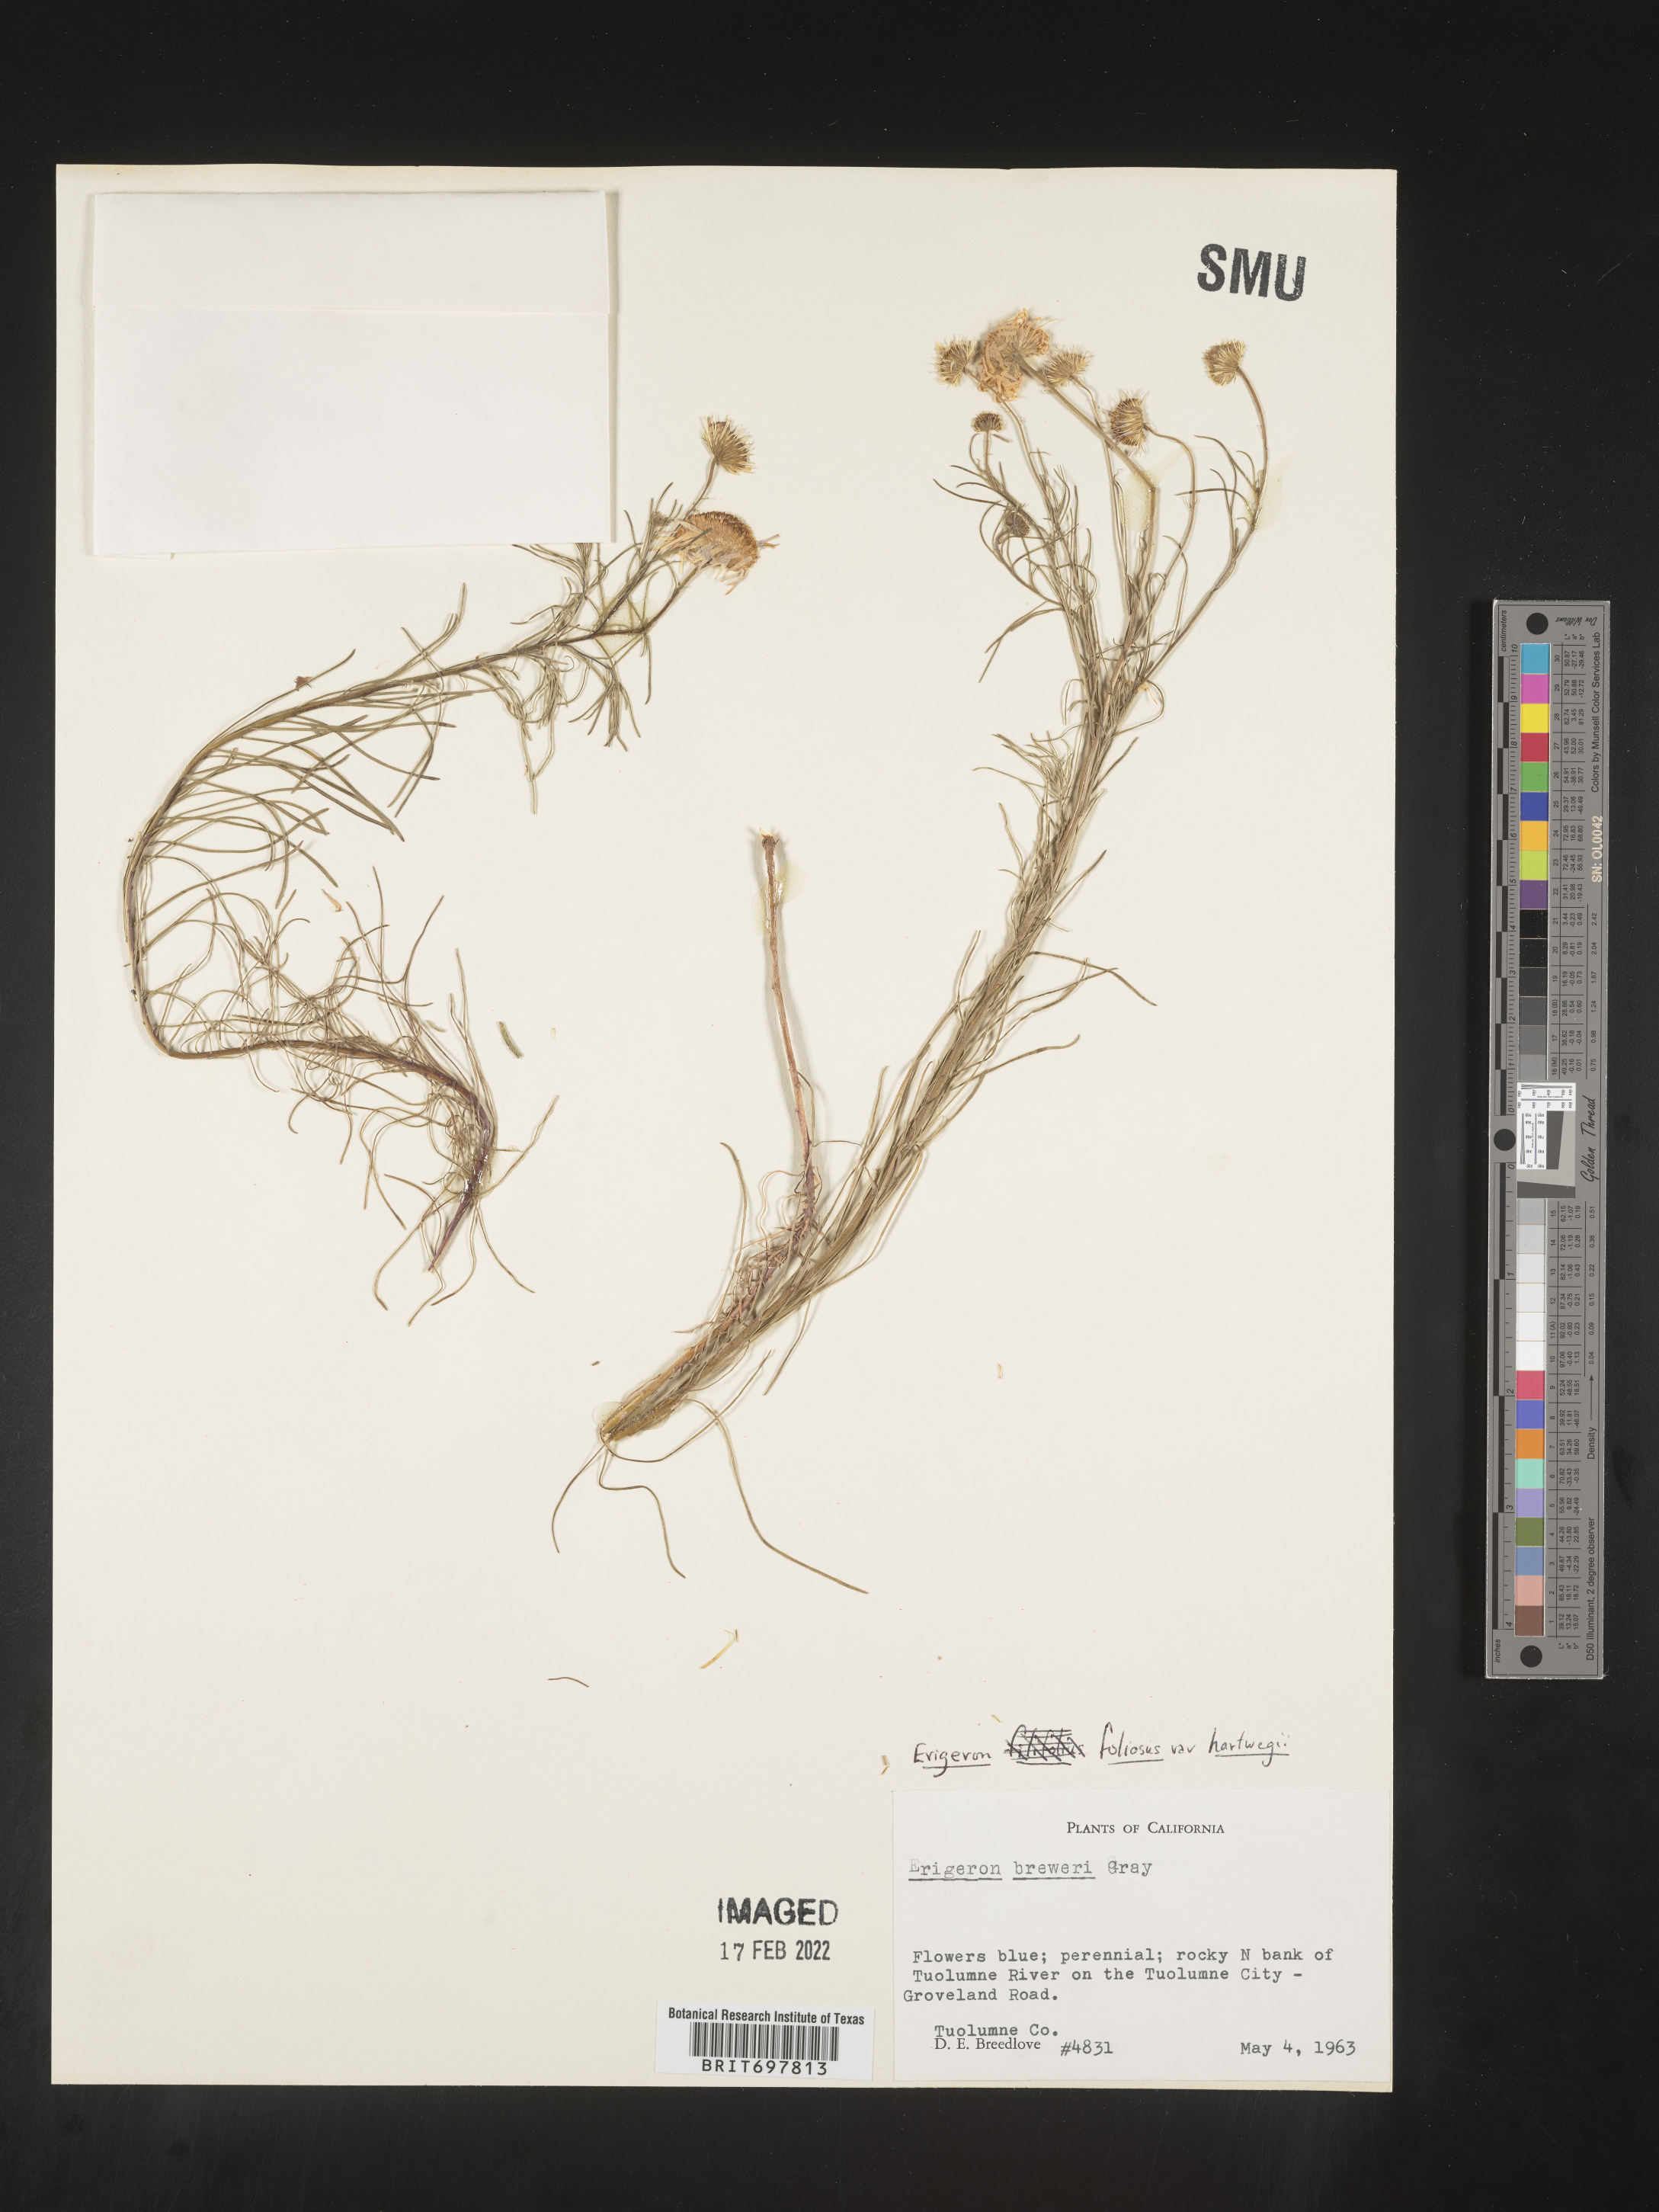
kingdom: Plantae
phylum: Tracheophyta
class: Magnoliopsida
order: Asterales
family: Asteraceae
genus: Erigeron
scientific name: Erigeron foliosus
